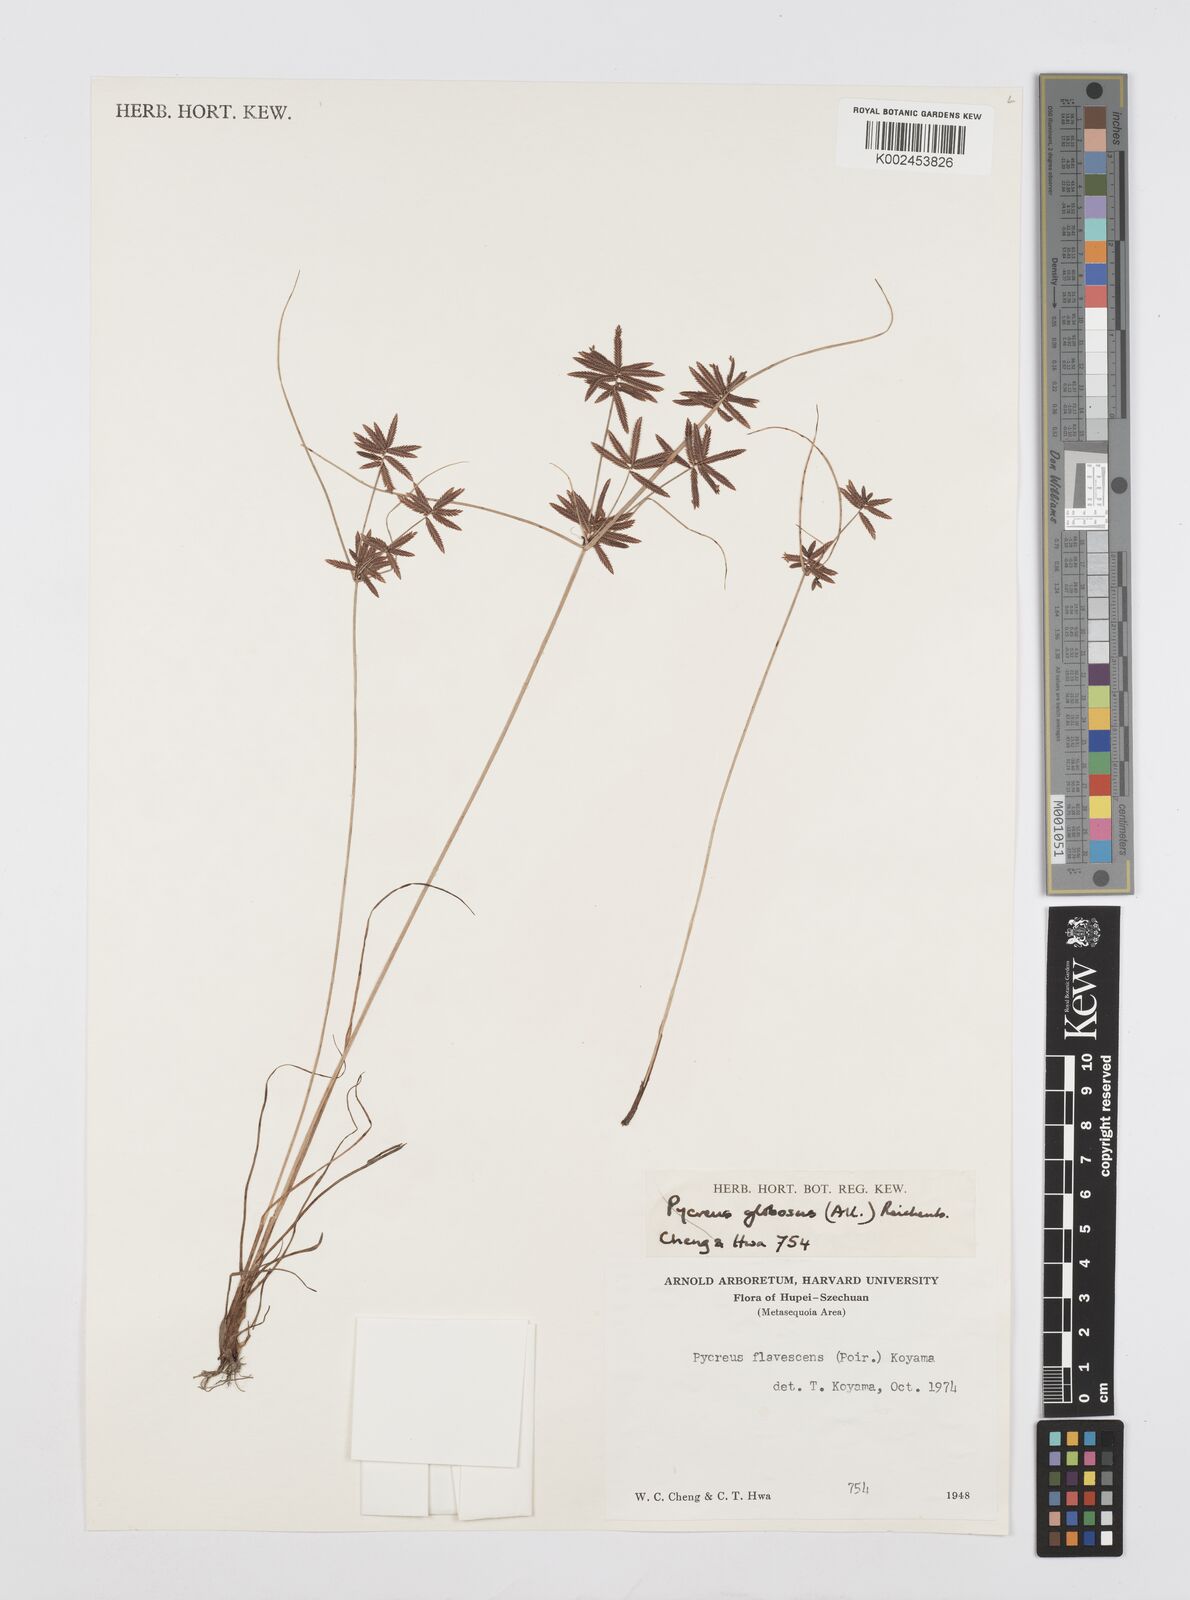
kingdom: Plantae
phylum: Tracheophyta
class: Liliopsida
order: Poales
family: Cyperaceae
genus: Cyperus
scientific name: Cyperus flavidus
